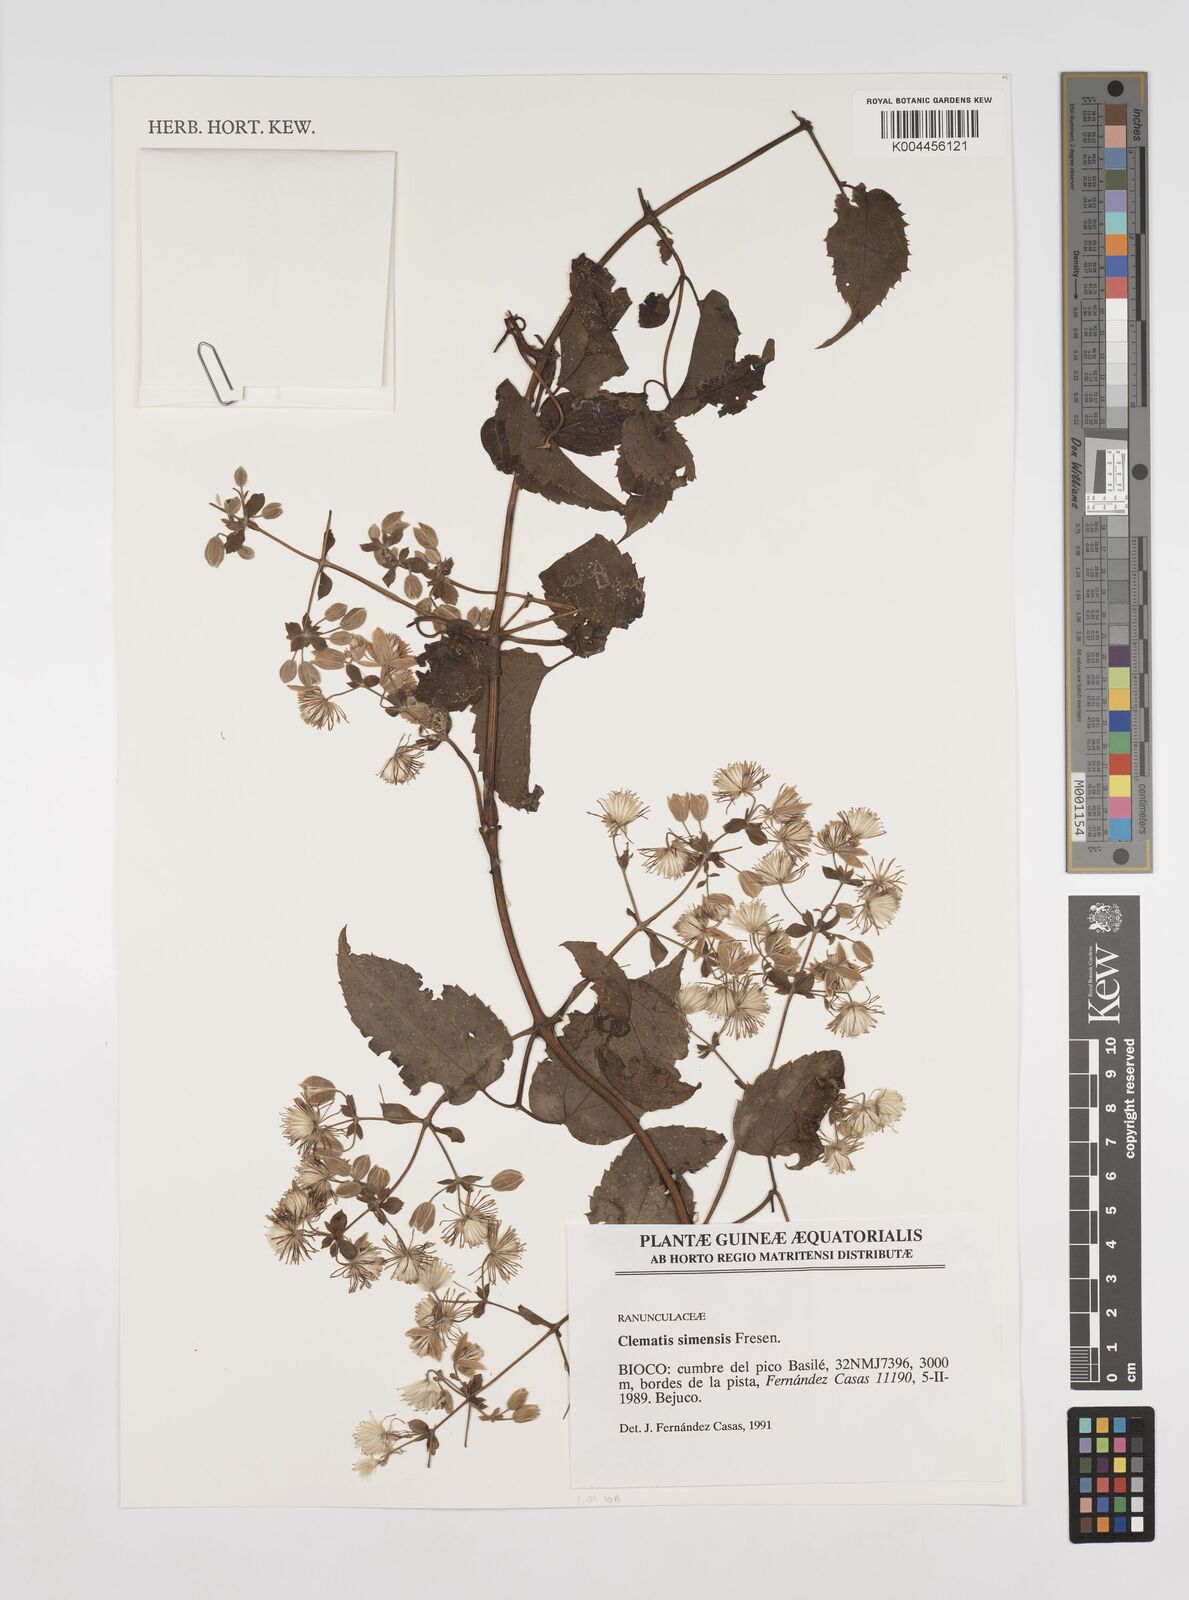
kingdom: Plantae
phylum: Tracheophyta
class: Magnoliopsida
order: Ranunculales
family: Ranunculaceae
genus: Clematis
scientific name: Clematis simensis
